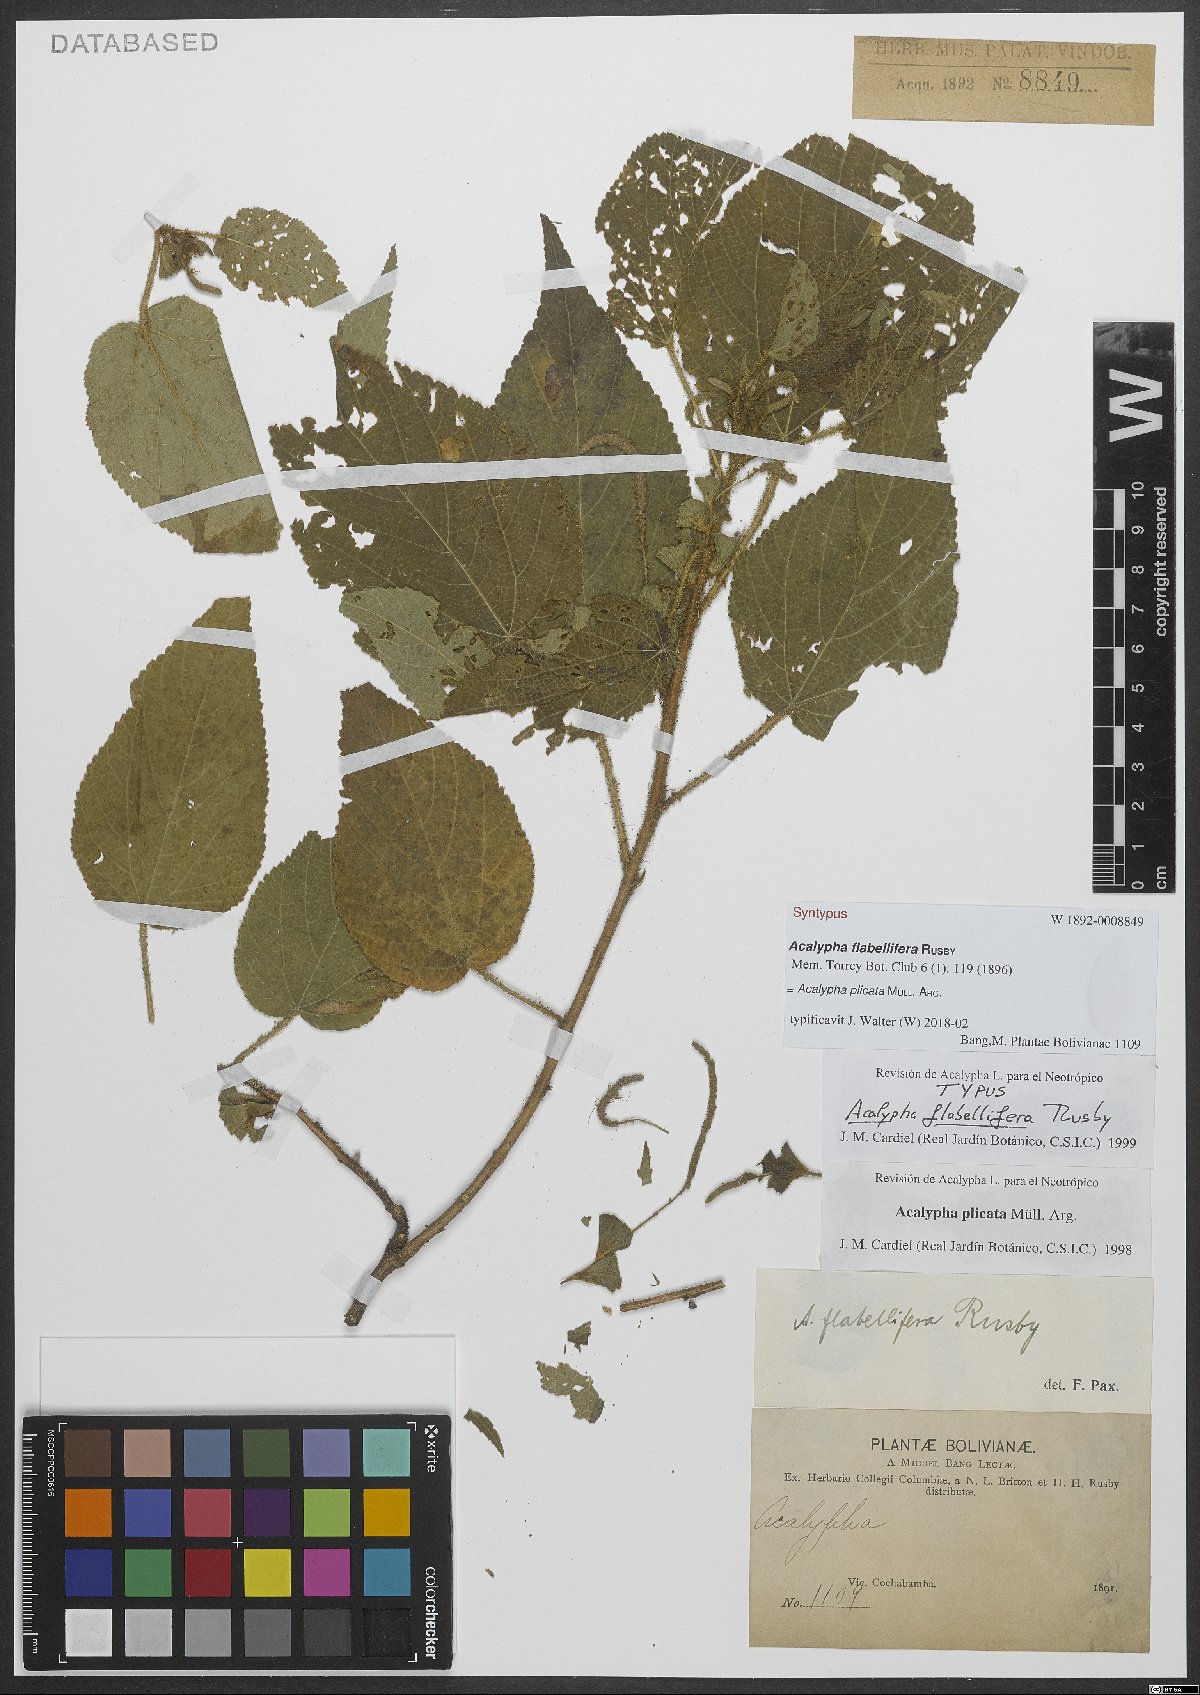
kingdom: Plantae
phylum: Tracheophyta
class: Magnoliopsida
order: Malpighiales
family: Euphorbiaceae
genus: Acalypha
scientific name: Acalypha plicata
